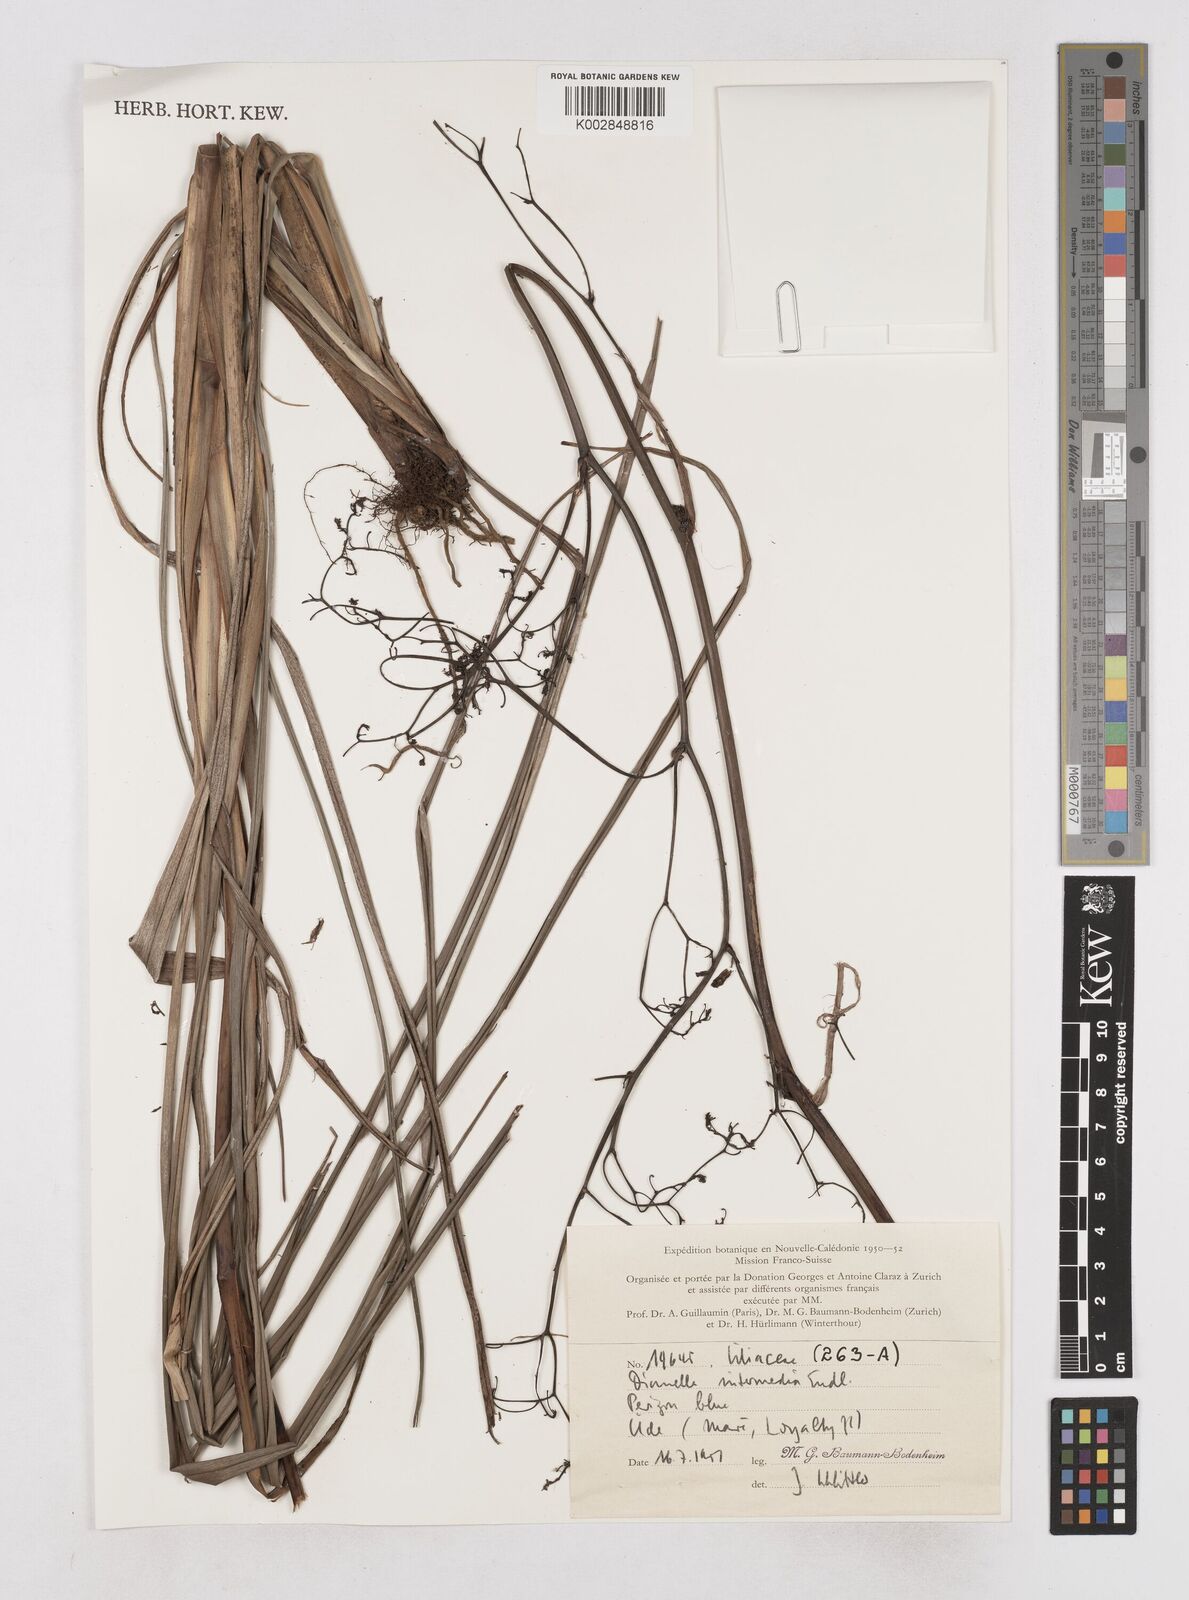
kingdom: Plantae
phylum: Tracheophyta
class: Liliopsida
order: Asparagales
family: Asphodelaceae
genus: Dianella
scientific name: Dianella intermedia
